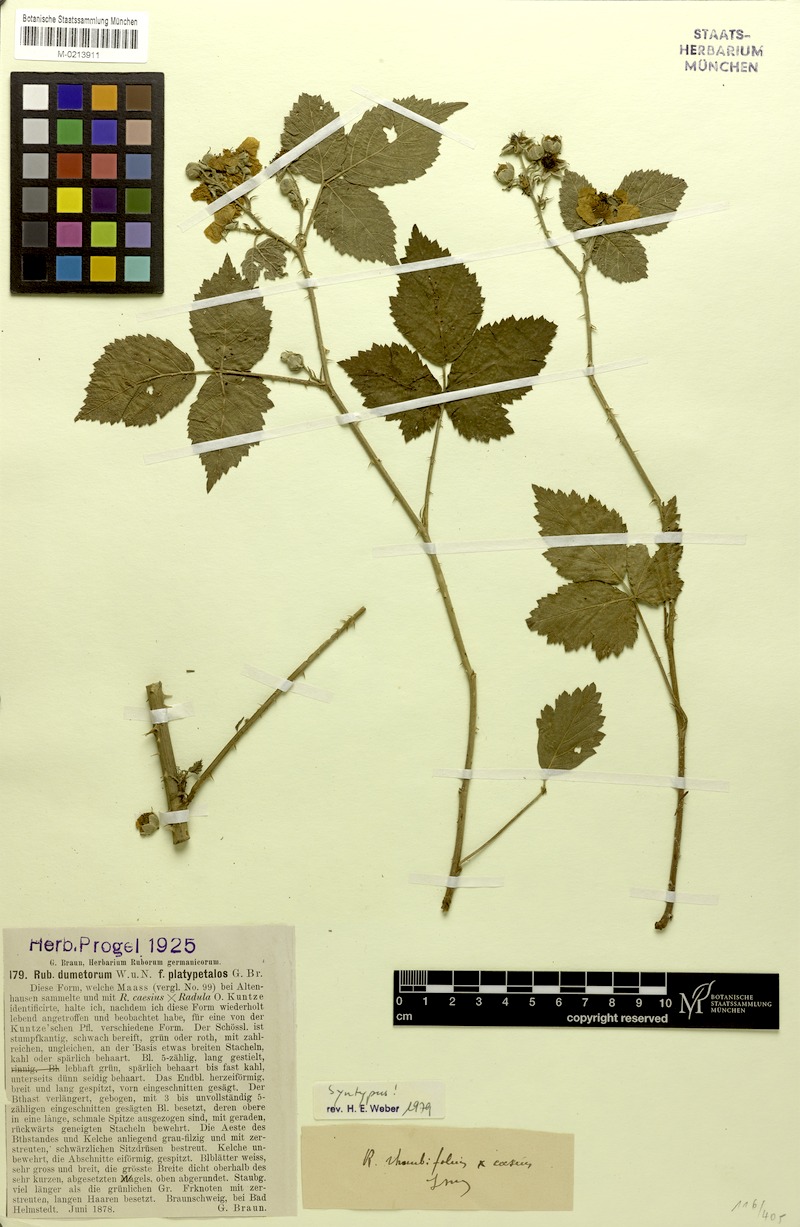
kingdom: Plantae
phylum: Tracheophyta
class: Magnoliopsida
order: Rosales
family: Rosaceae
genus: Rubus
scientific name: Rubus dumetorum
